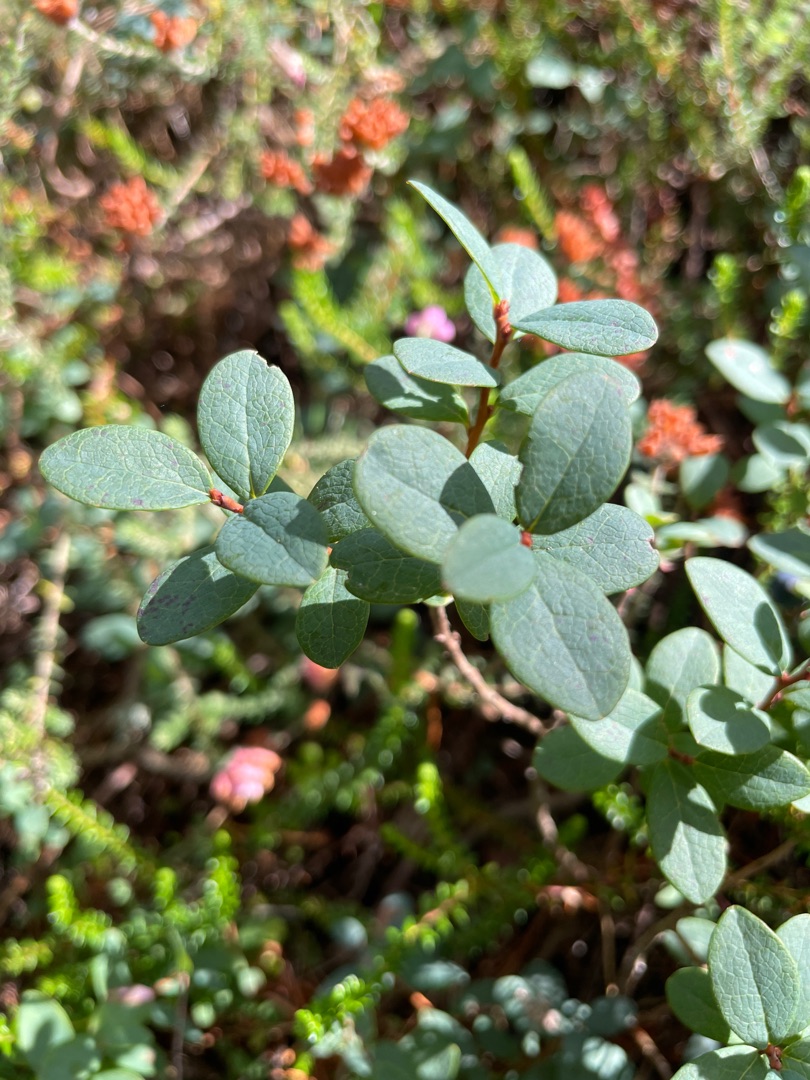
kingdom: Plantae
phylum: Tracheophyta
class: Magnoliopsida
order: Ericales
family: Ericaceae
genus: Vaccinium
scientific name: Vaccinium uliginosum
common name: Mose-bølle
